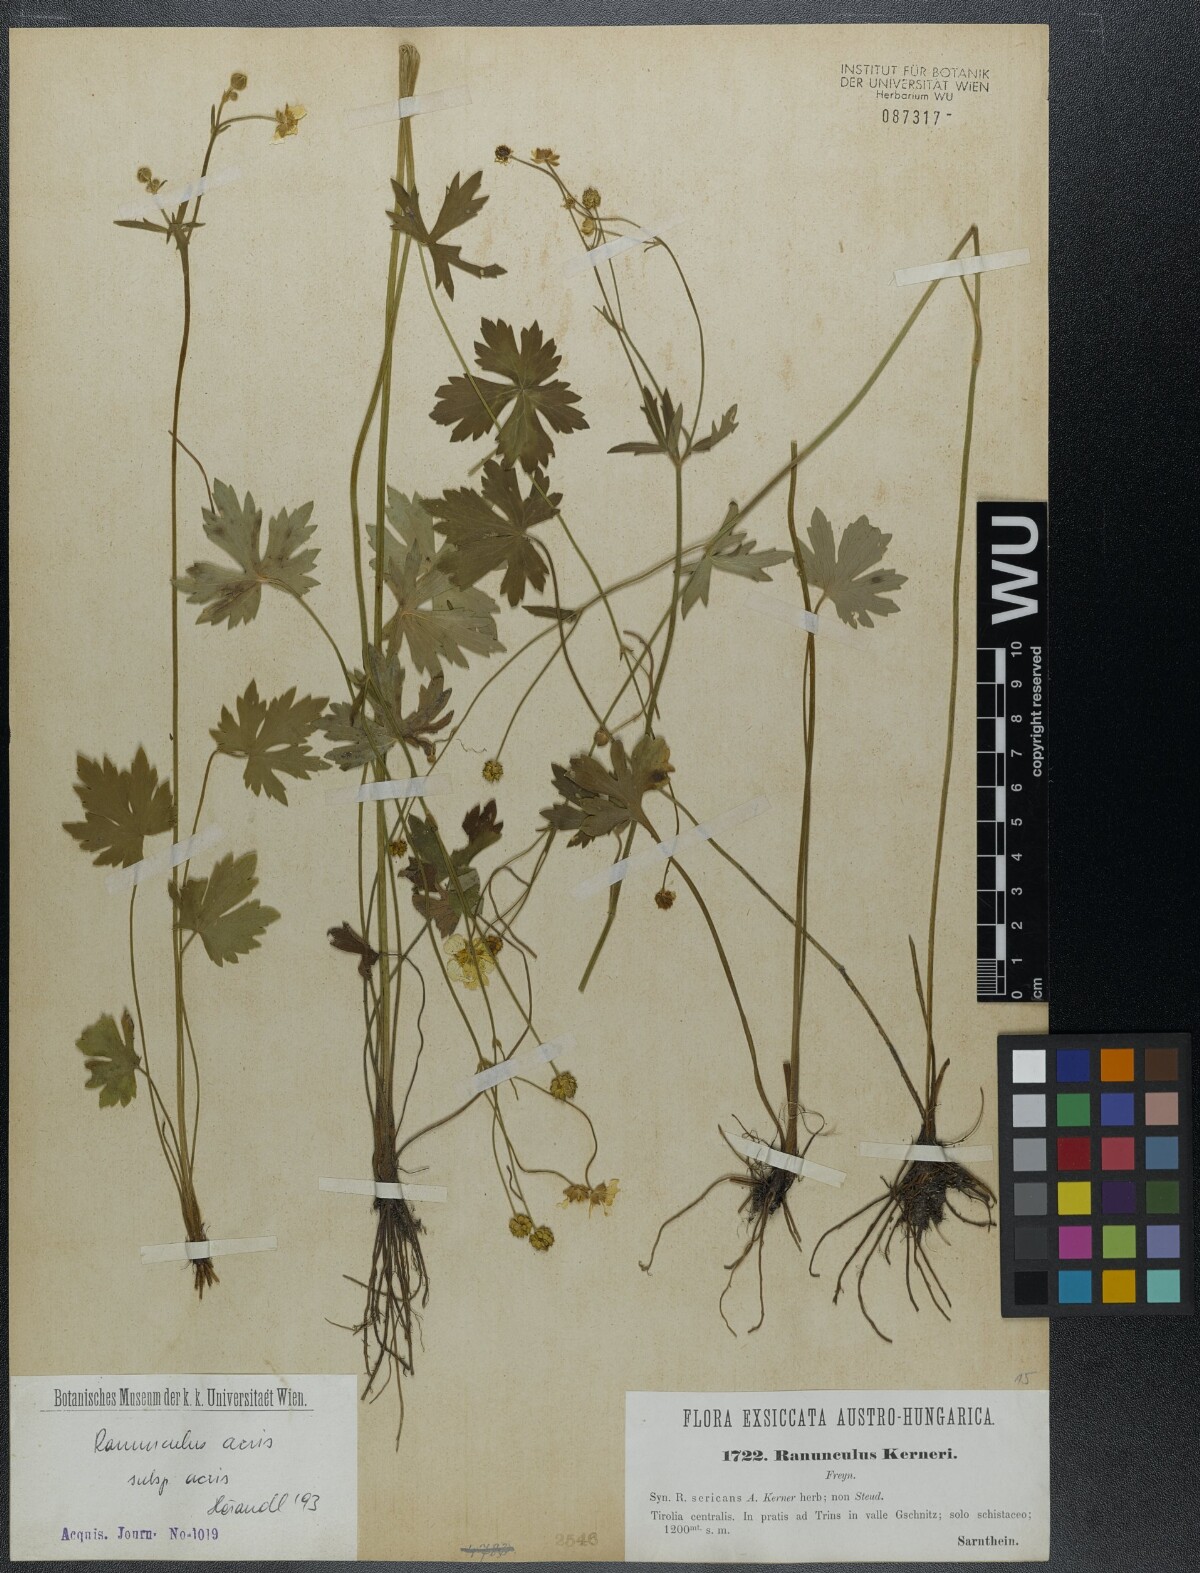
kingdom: Plantae
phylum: Tracheophyta
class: Magnoliopsida
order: Ranunculales
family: Ranunculaceae
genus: Ranunculus
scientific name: Ranunculus acris
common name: Meadow buttercup
